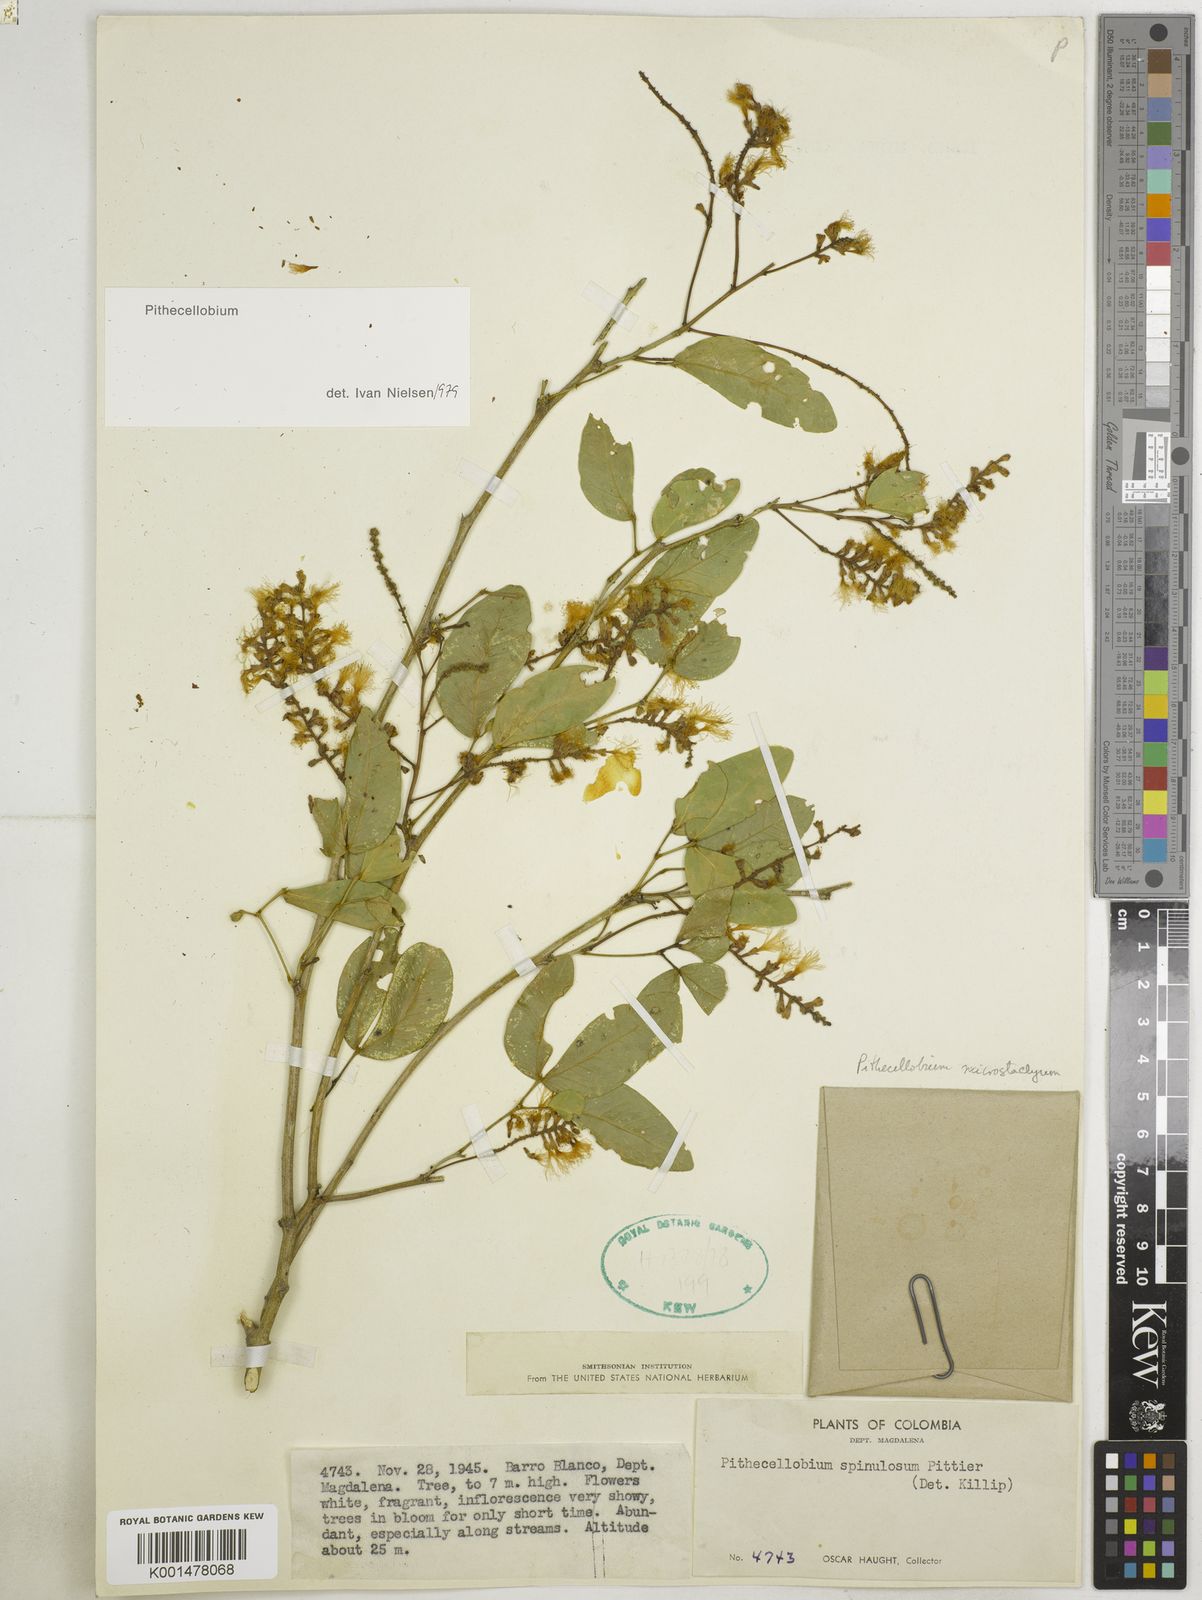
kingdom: Plantae
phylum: Tracheophyta
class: Magnoliopsida
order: Fabales
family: Fabaceae
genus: Pithecellobium
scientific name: Pithecellobium lanceolatum
